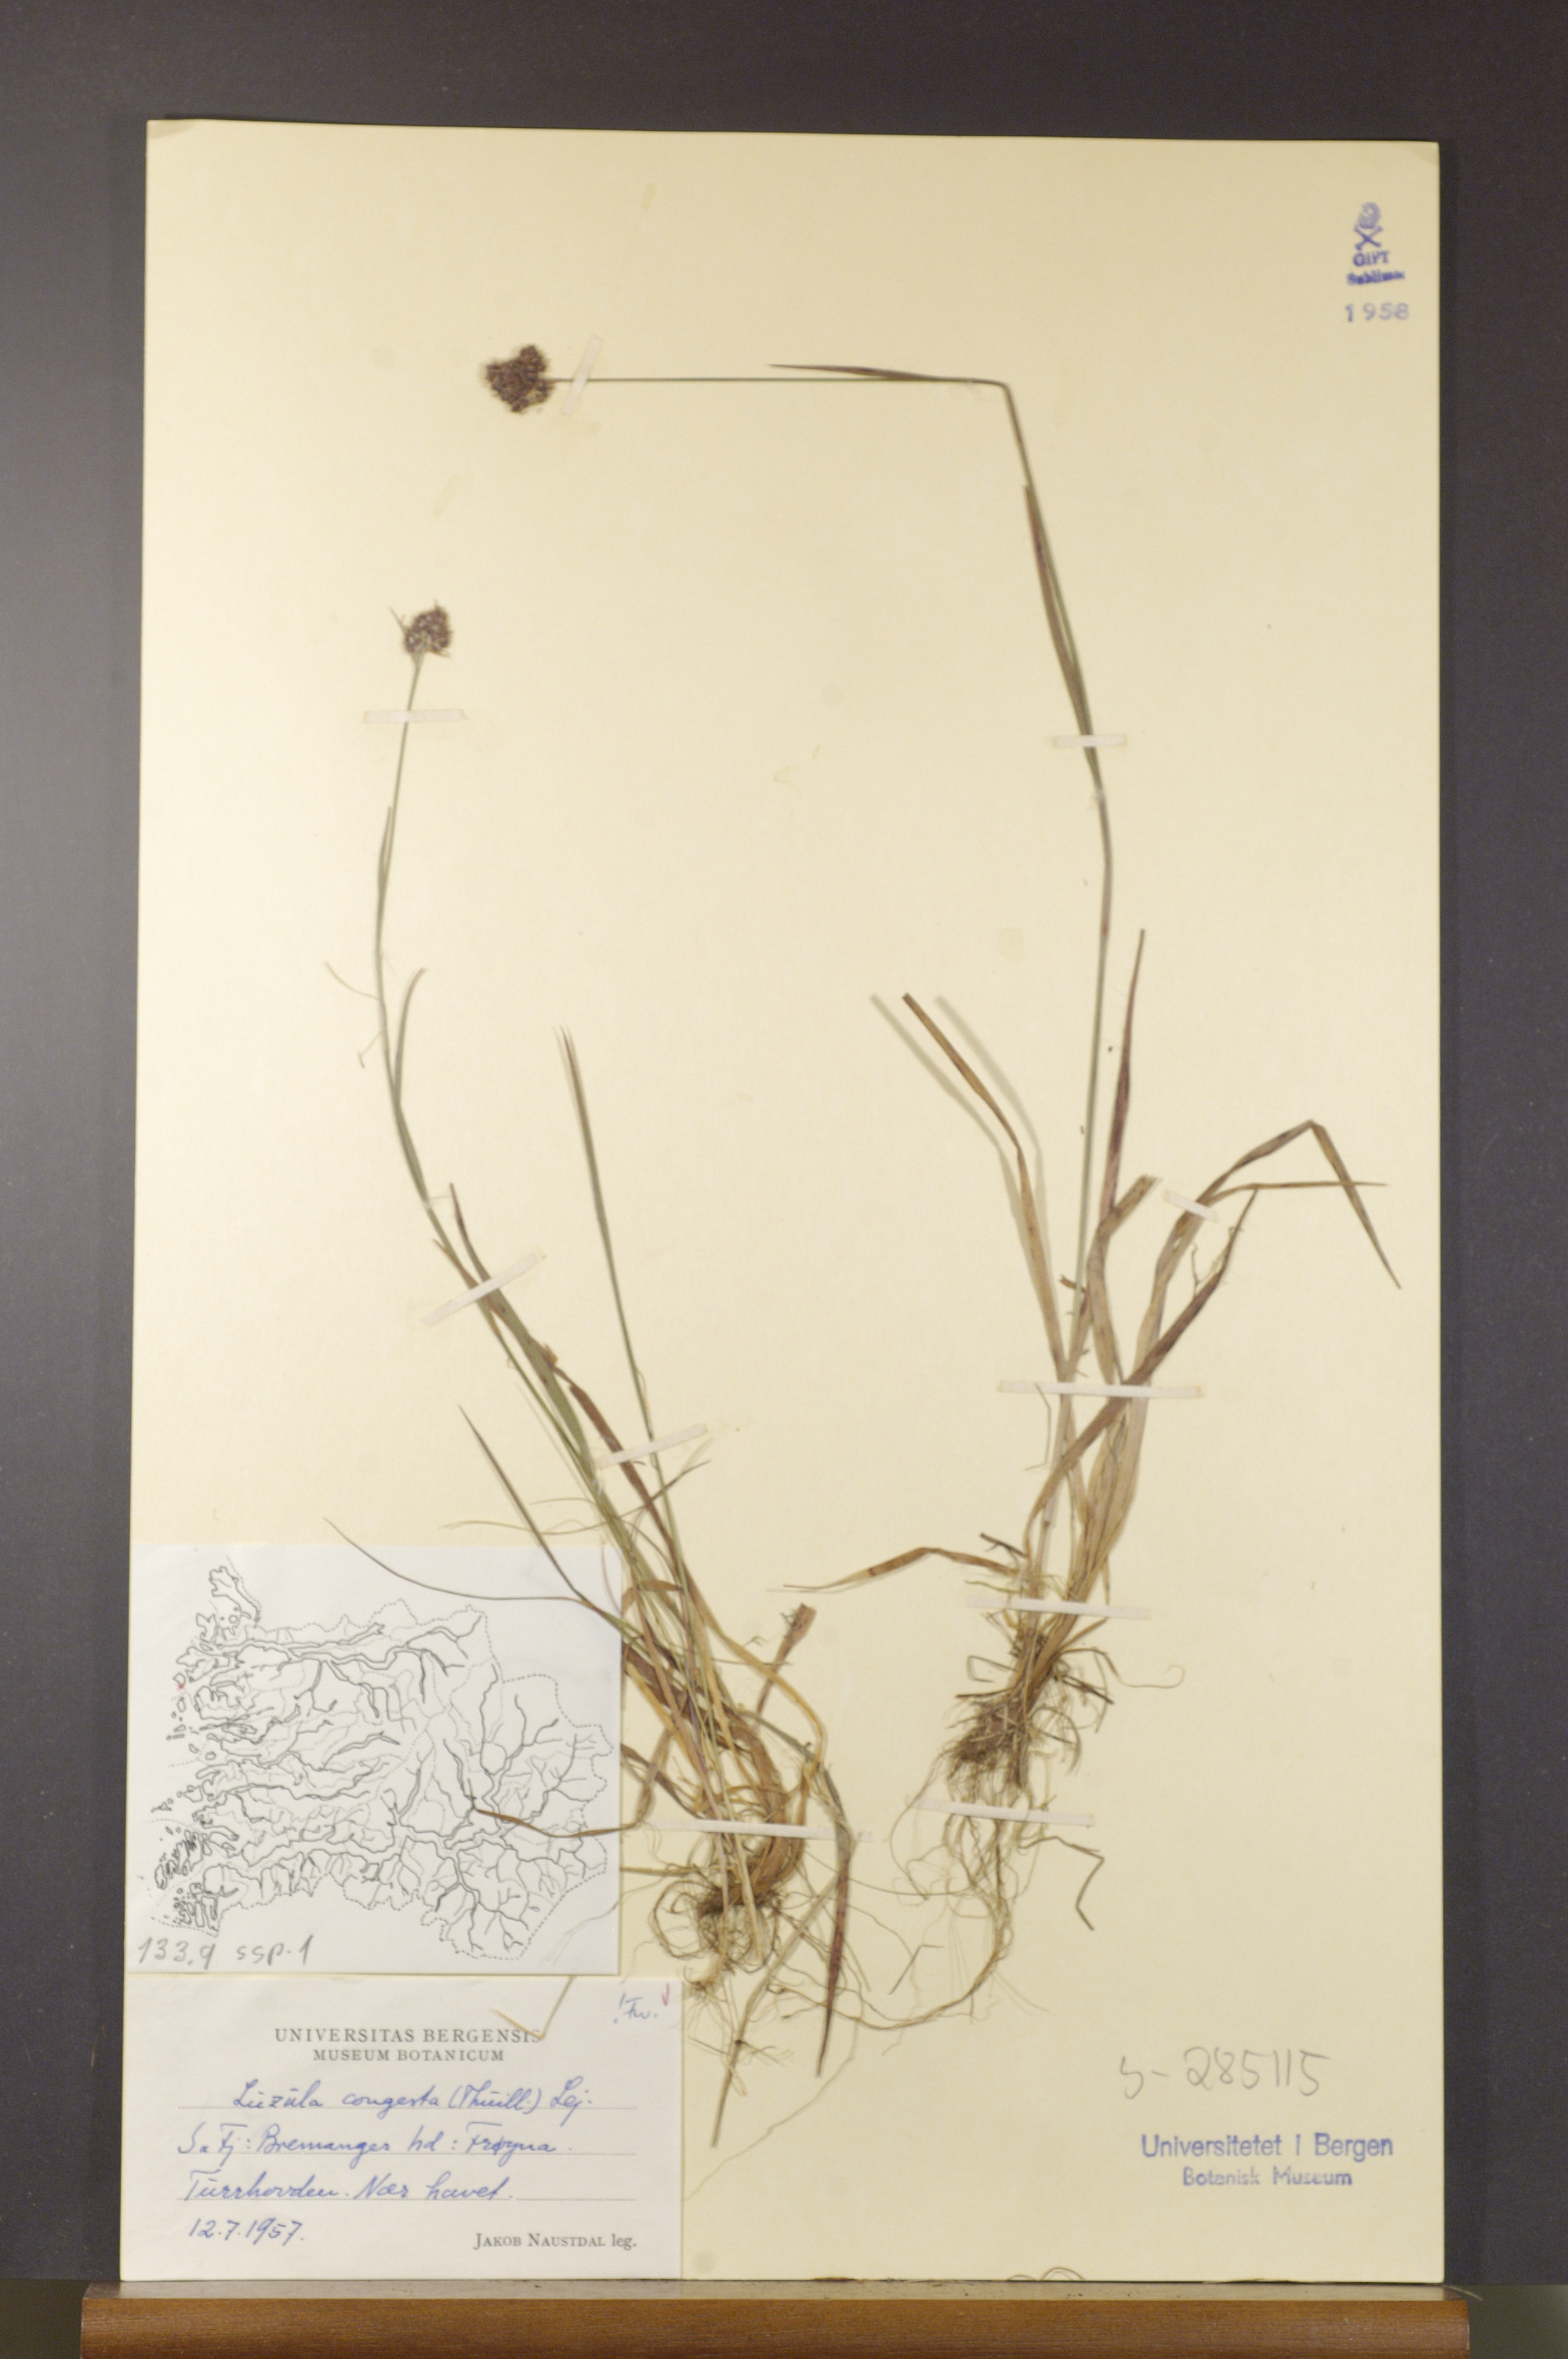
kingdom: Plantae
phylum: Tracheophyta
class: Liliopsida
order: Poales
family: Juncaceae
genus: Luzula
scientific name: Luzula congesta
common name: Heath woodrush
